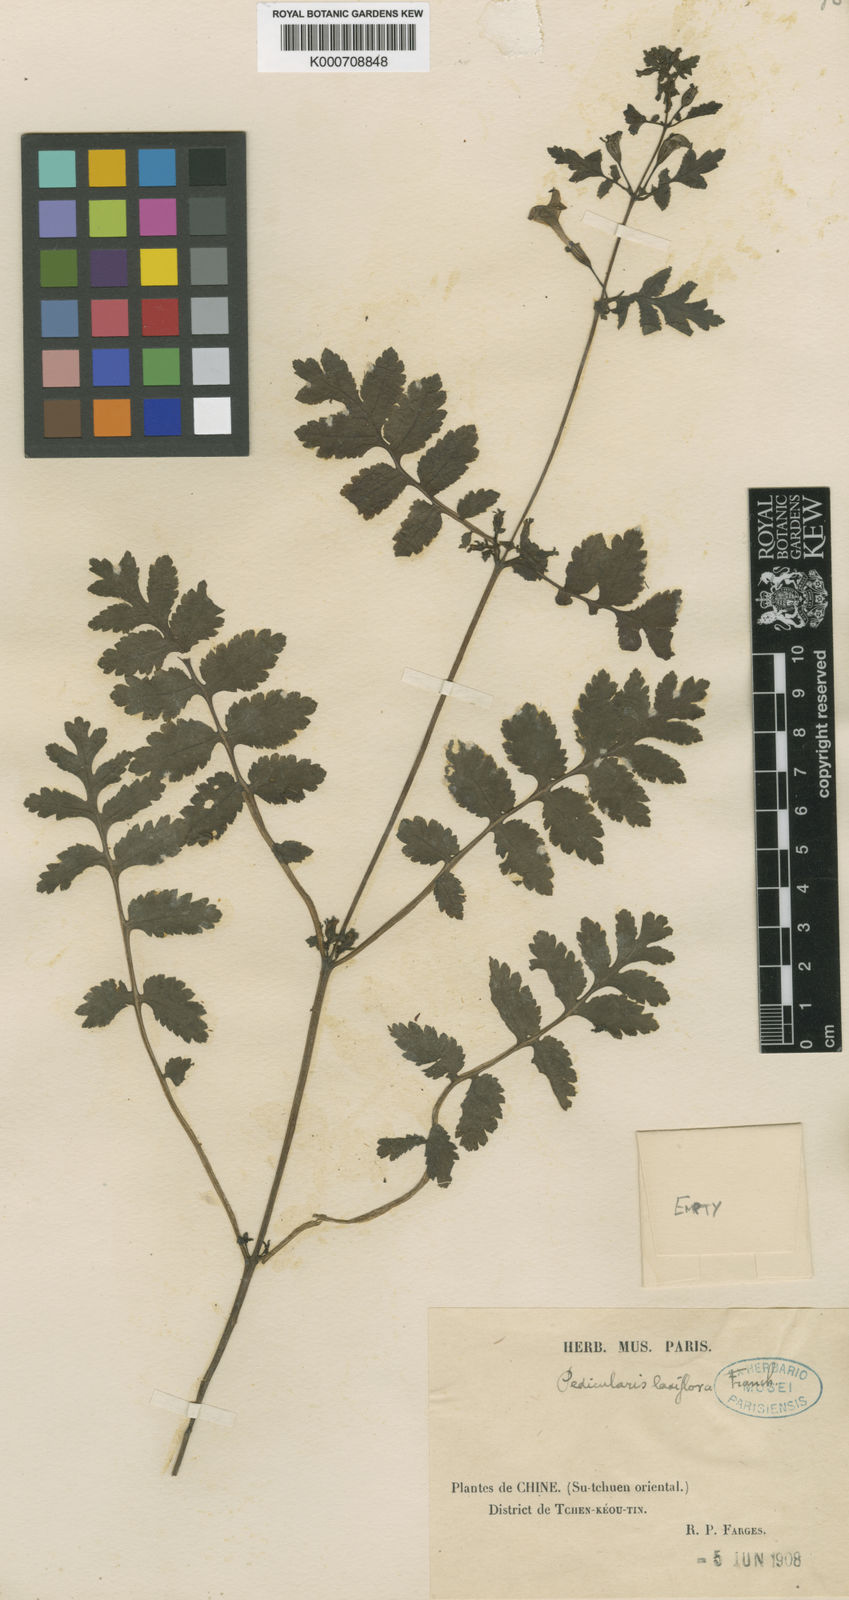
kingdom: Plantae
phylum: Tracheophyta
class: Magnoliopsida
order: Lamiales
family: Orobanchaceae
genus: Pedicularis
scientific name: Pedicularis laxiflora
